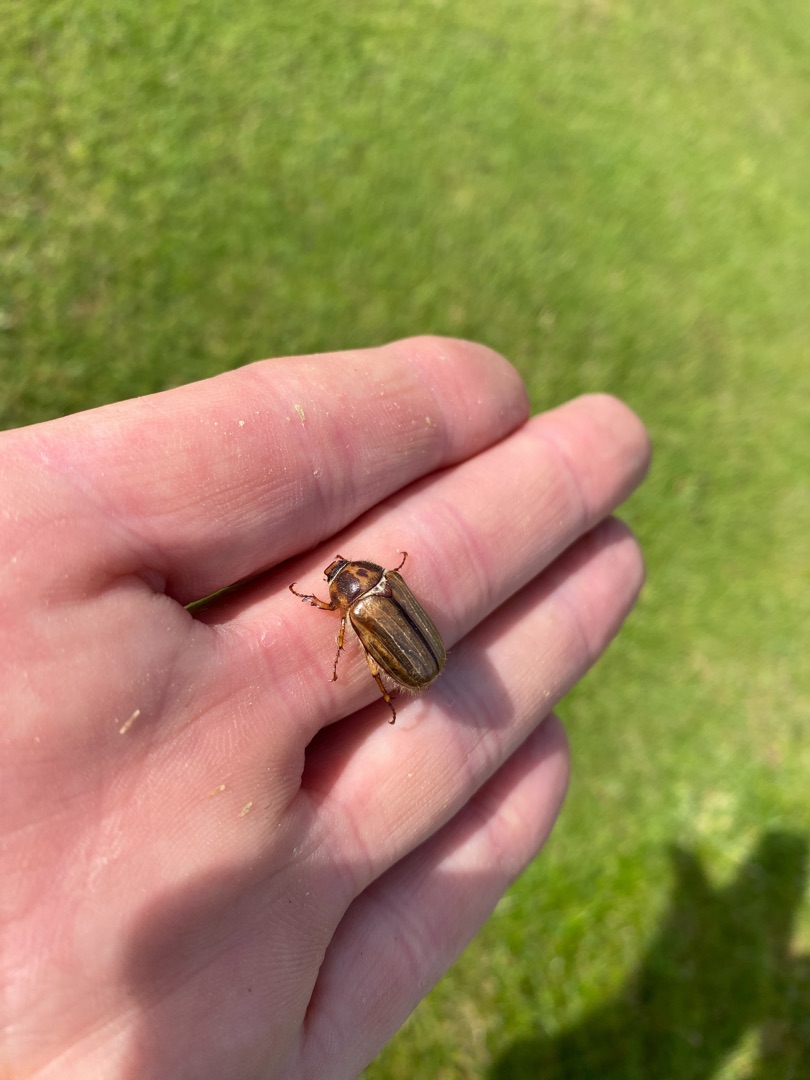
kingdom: Animalia
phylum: Arthropoda
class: Insecta
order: Coleoptera
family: Scarabaeidae
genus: Amphimallon
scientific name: Amphimallon solstitiale
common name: Sankthansoldenborre
